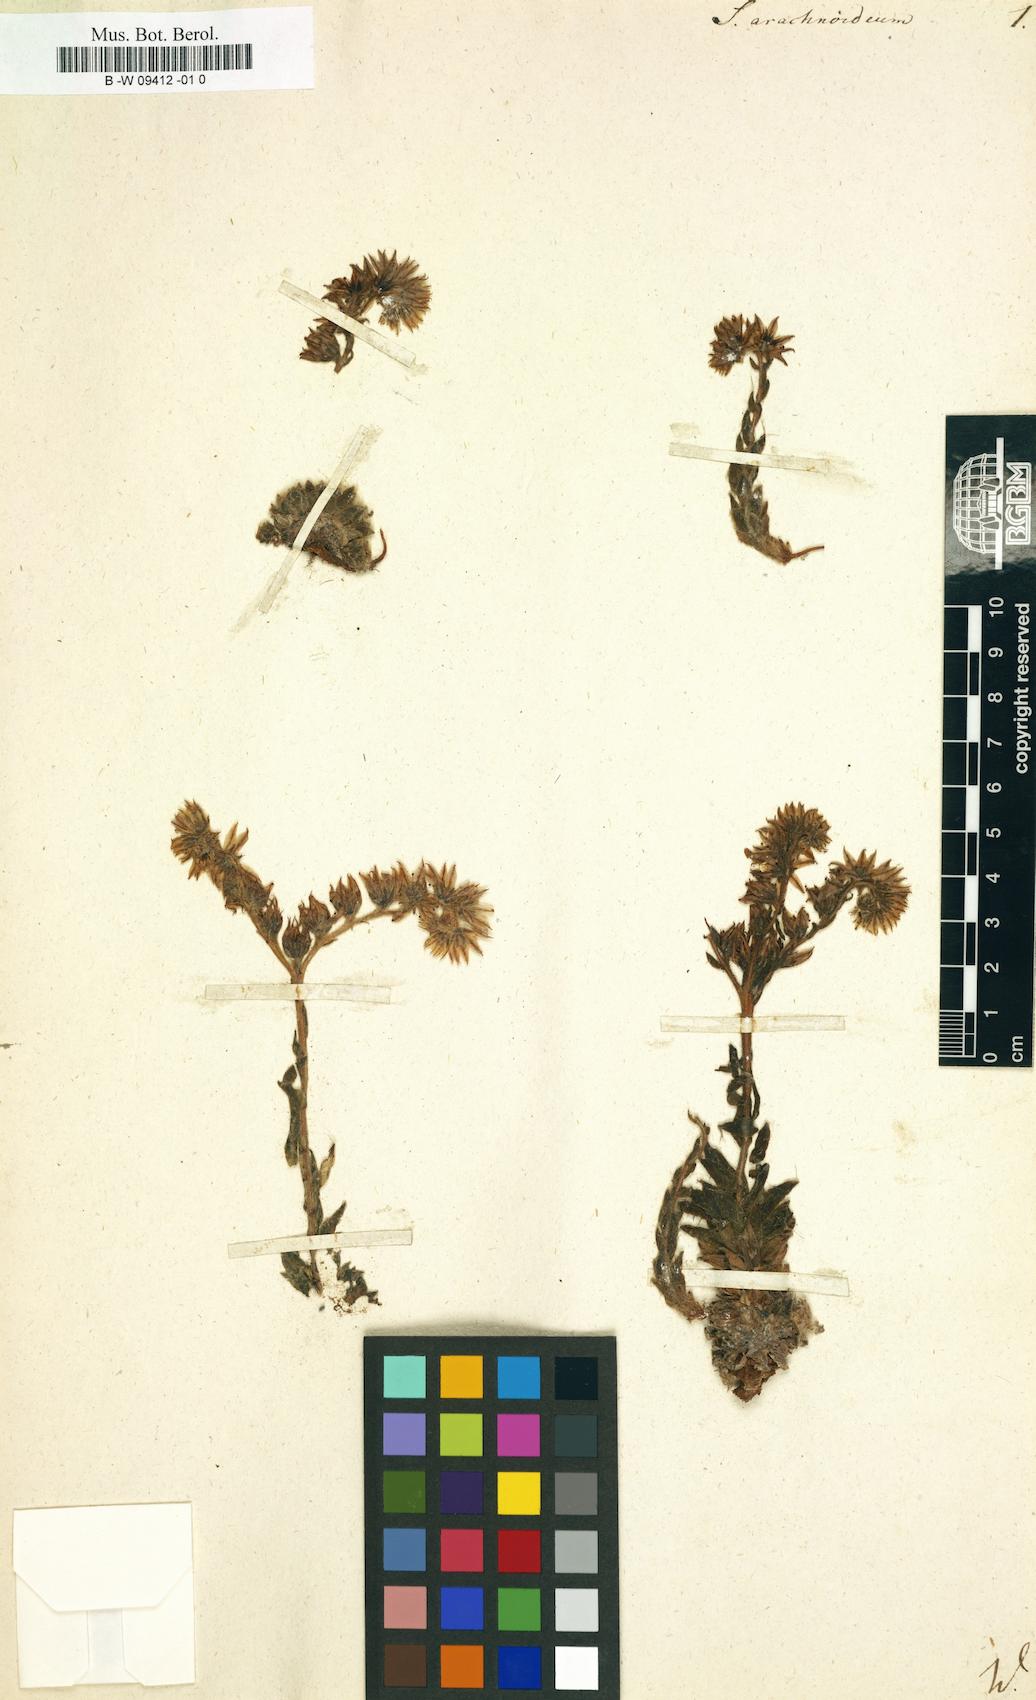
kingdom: Plantae
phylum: Tracheophyta
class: Magnoliopsida
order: Saxifragales
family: Crassulaceae
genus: Sempervivum
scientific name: Sempervivum arachnoideum
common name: Cobweb house-leek
